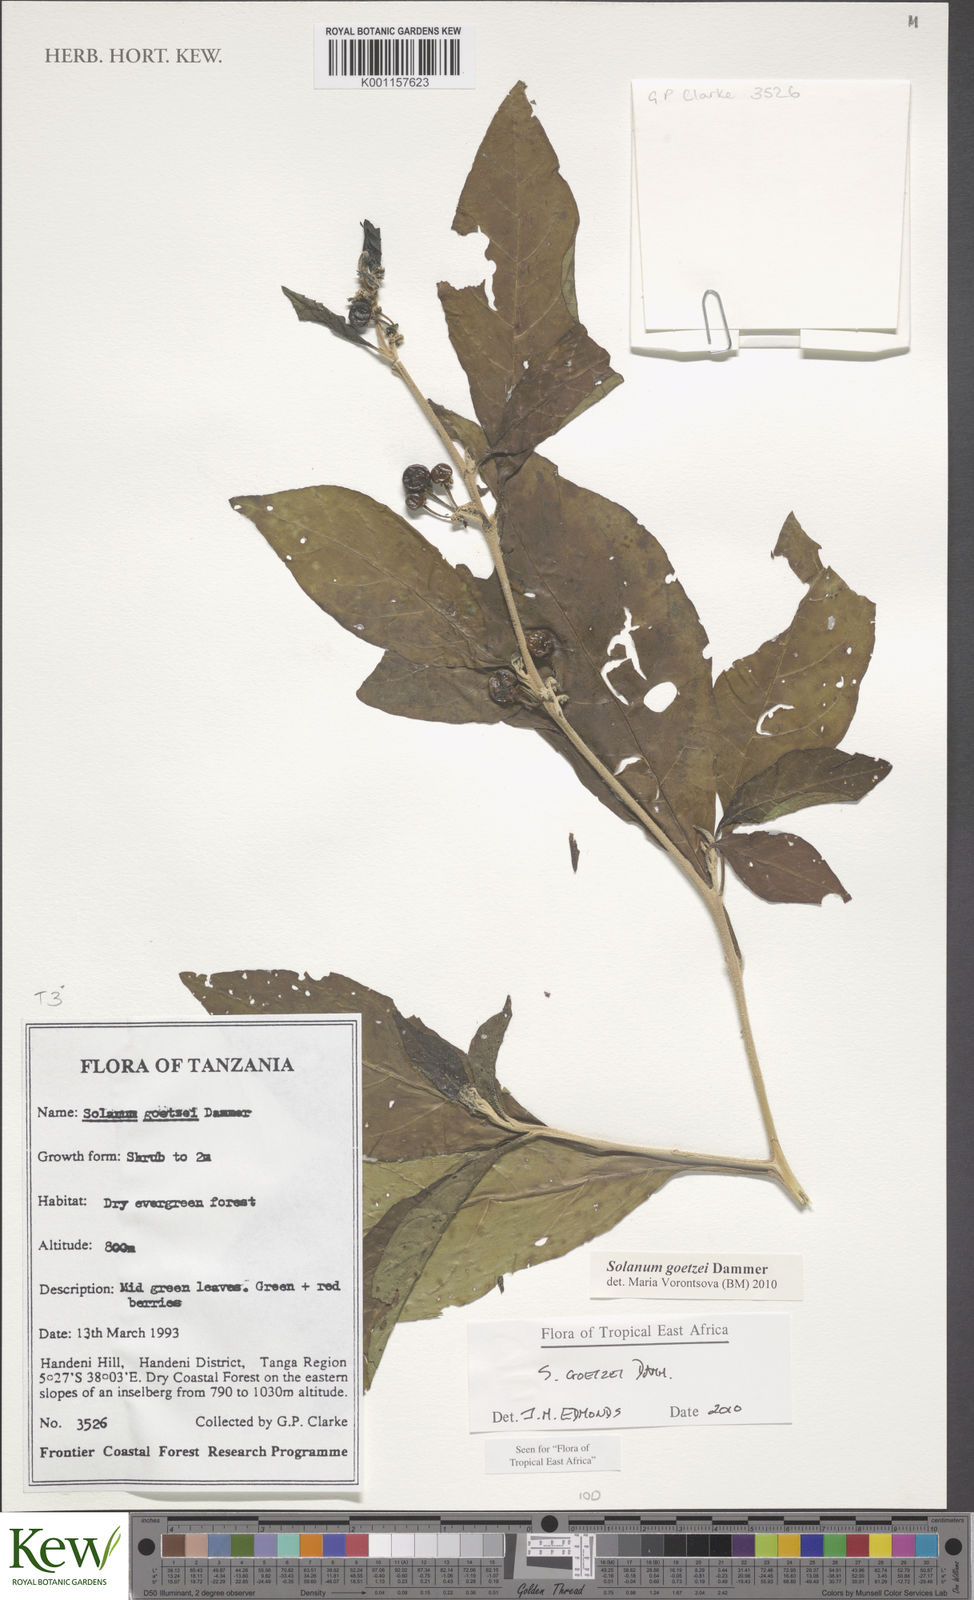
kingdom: Plantae
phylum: Tracheophyta
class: Magnoliopsida
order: Solanales
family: Solanaceae
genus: Solanum
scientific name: Solanum goetzei
